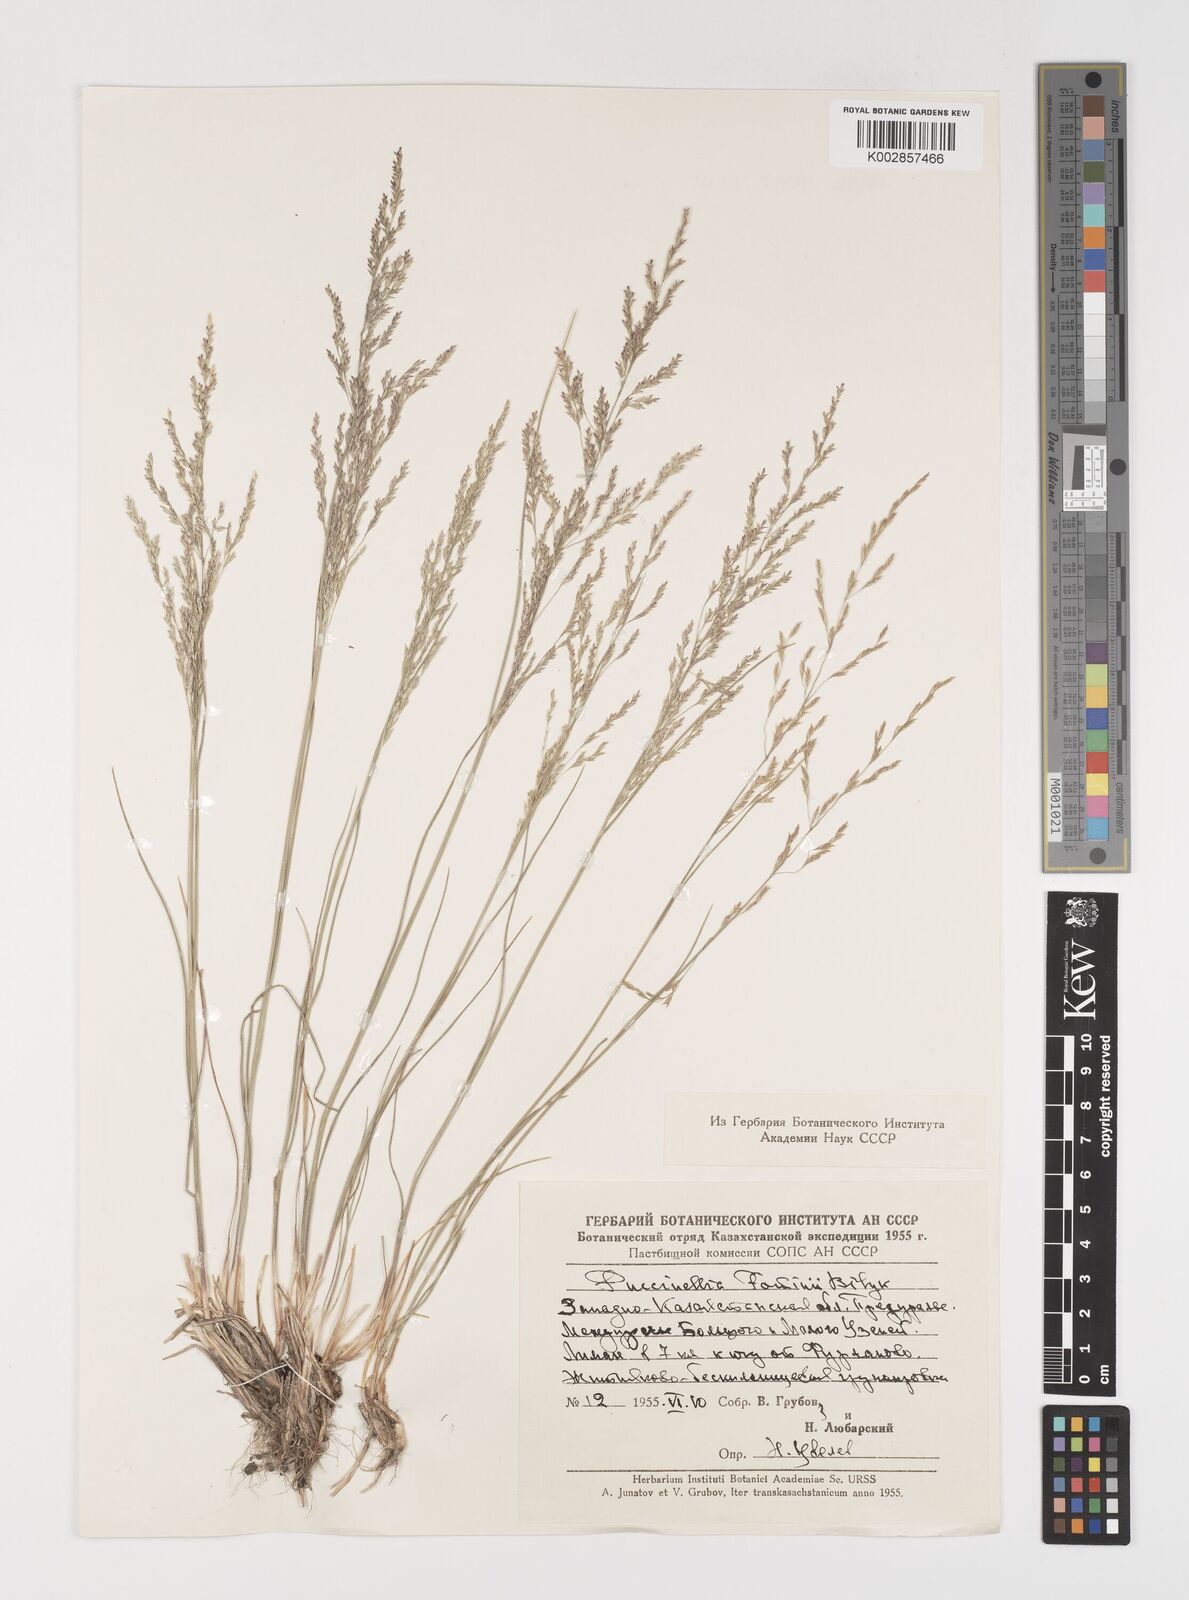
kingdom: Plantae
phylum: Tracheophyta
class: Liliopsida
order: Poales
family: Poaceae
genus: Puccinellia
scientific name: Puccinellia
